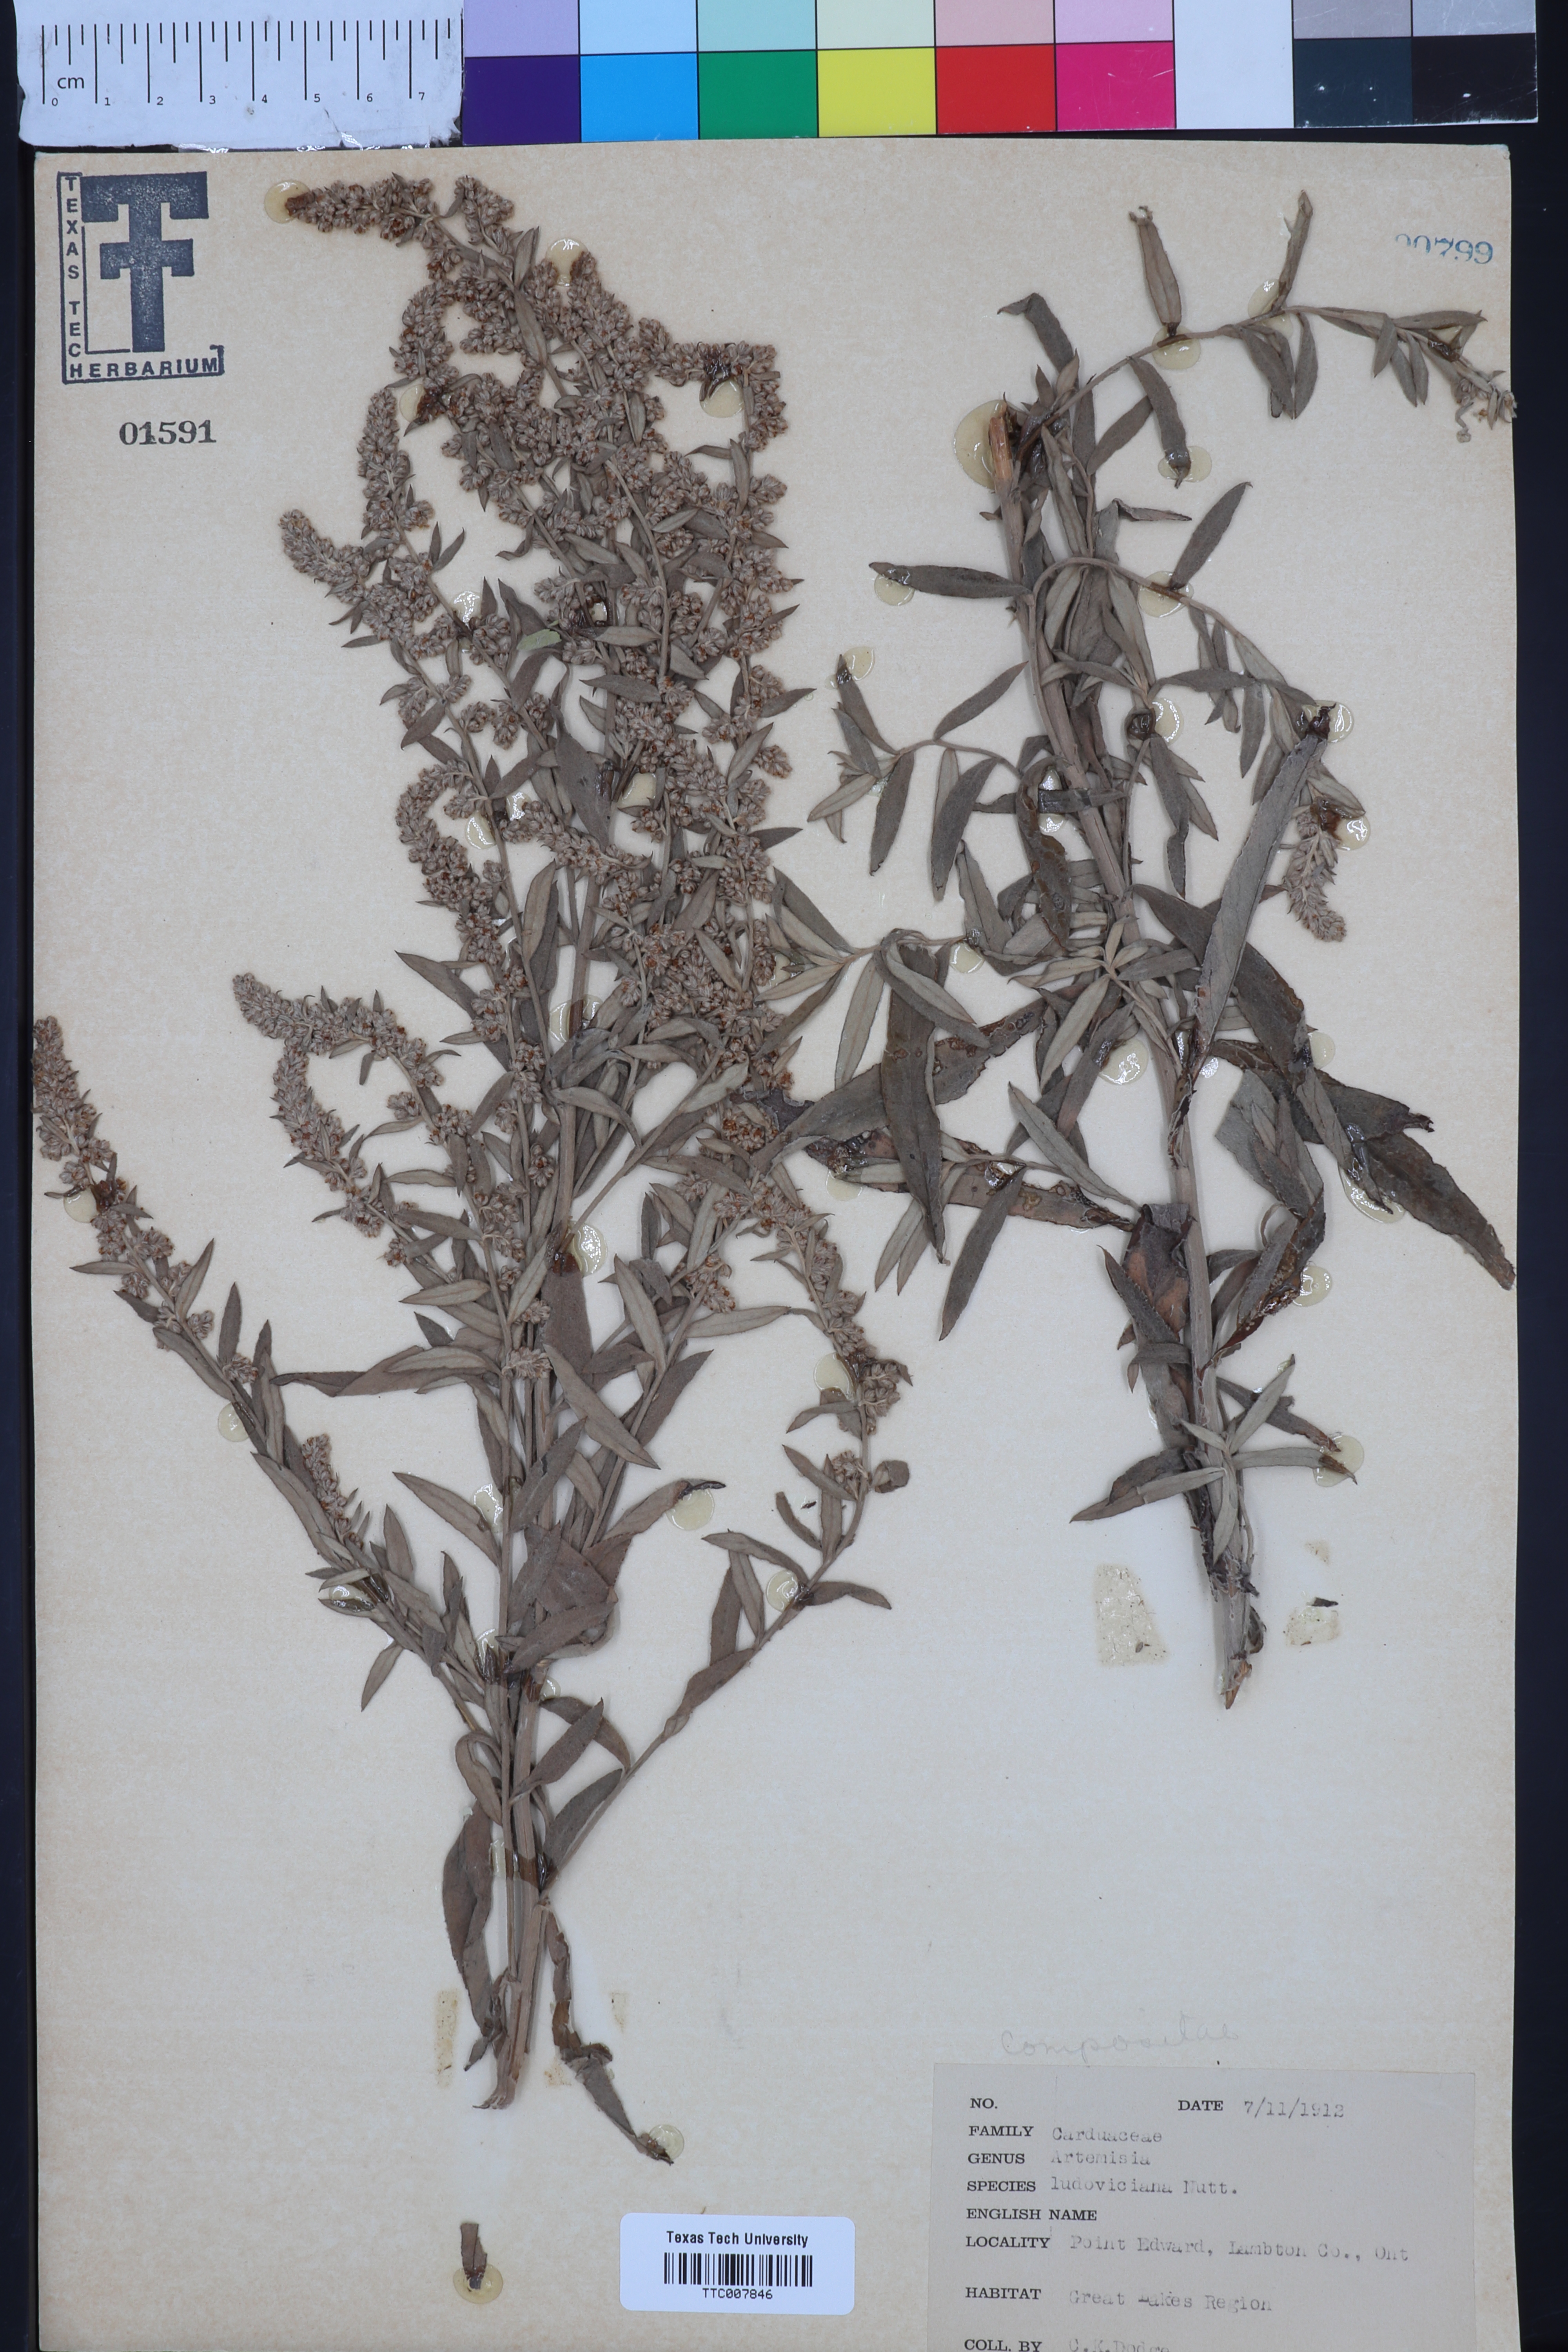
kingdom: Plantae
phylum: Tracheophyta
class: Magnoliopsida
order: Asterales
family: Asteraceae
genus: Artemisia
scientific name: Artemisia ludoviciana
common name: Western mugwort
